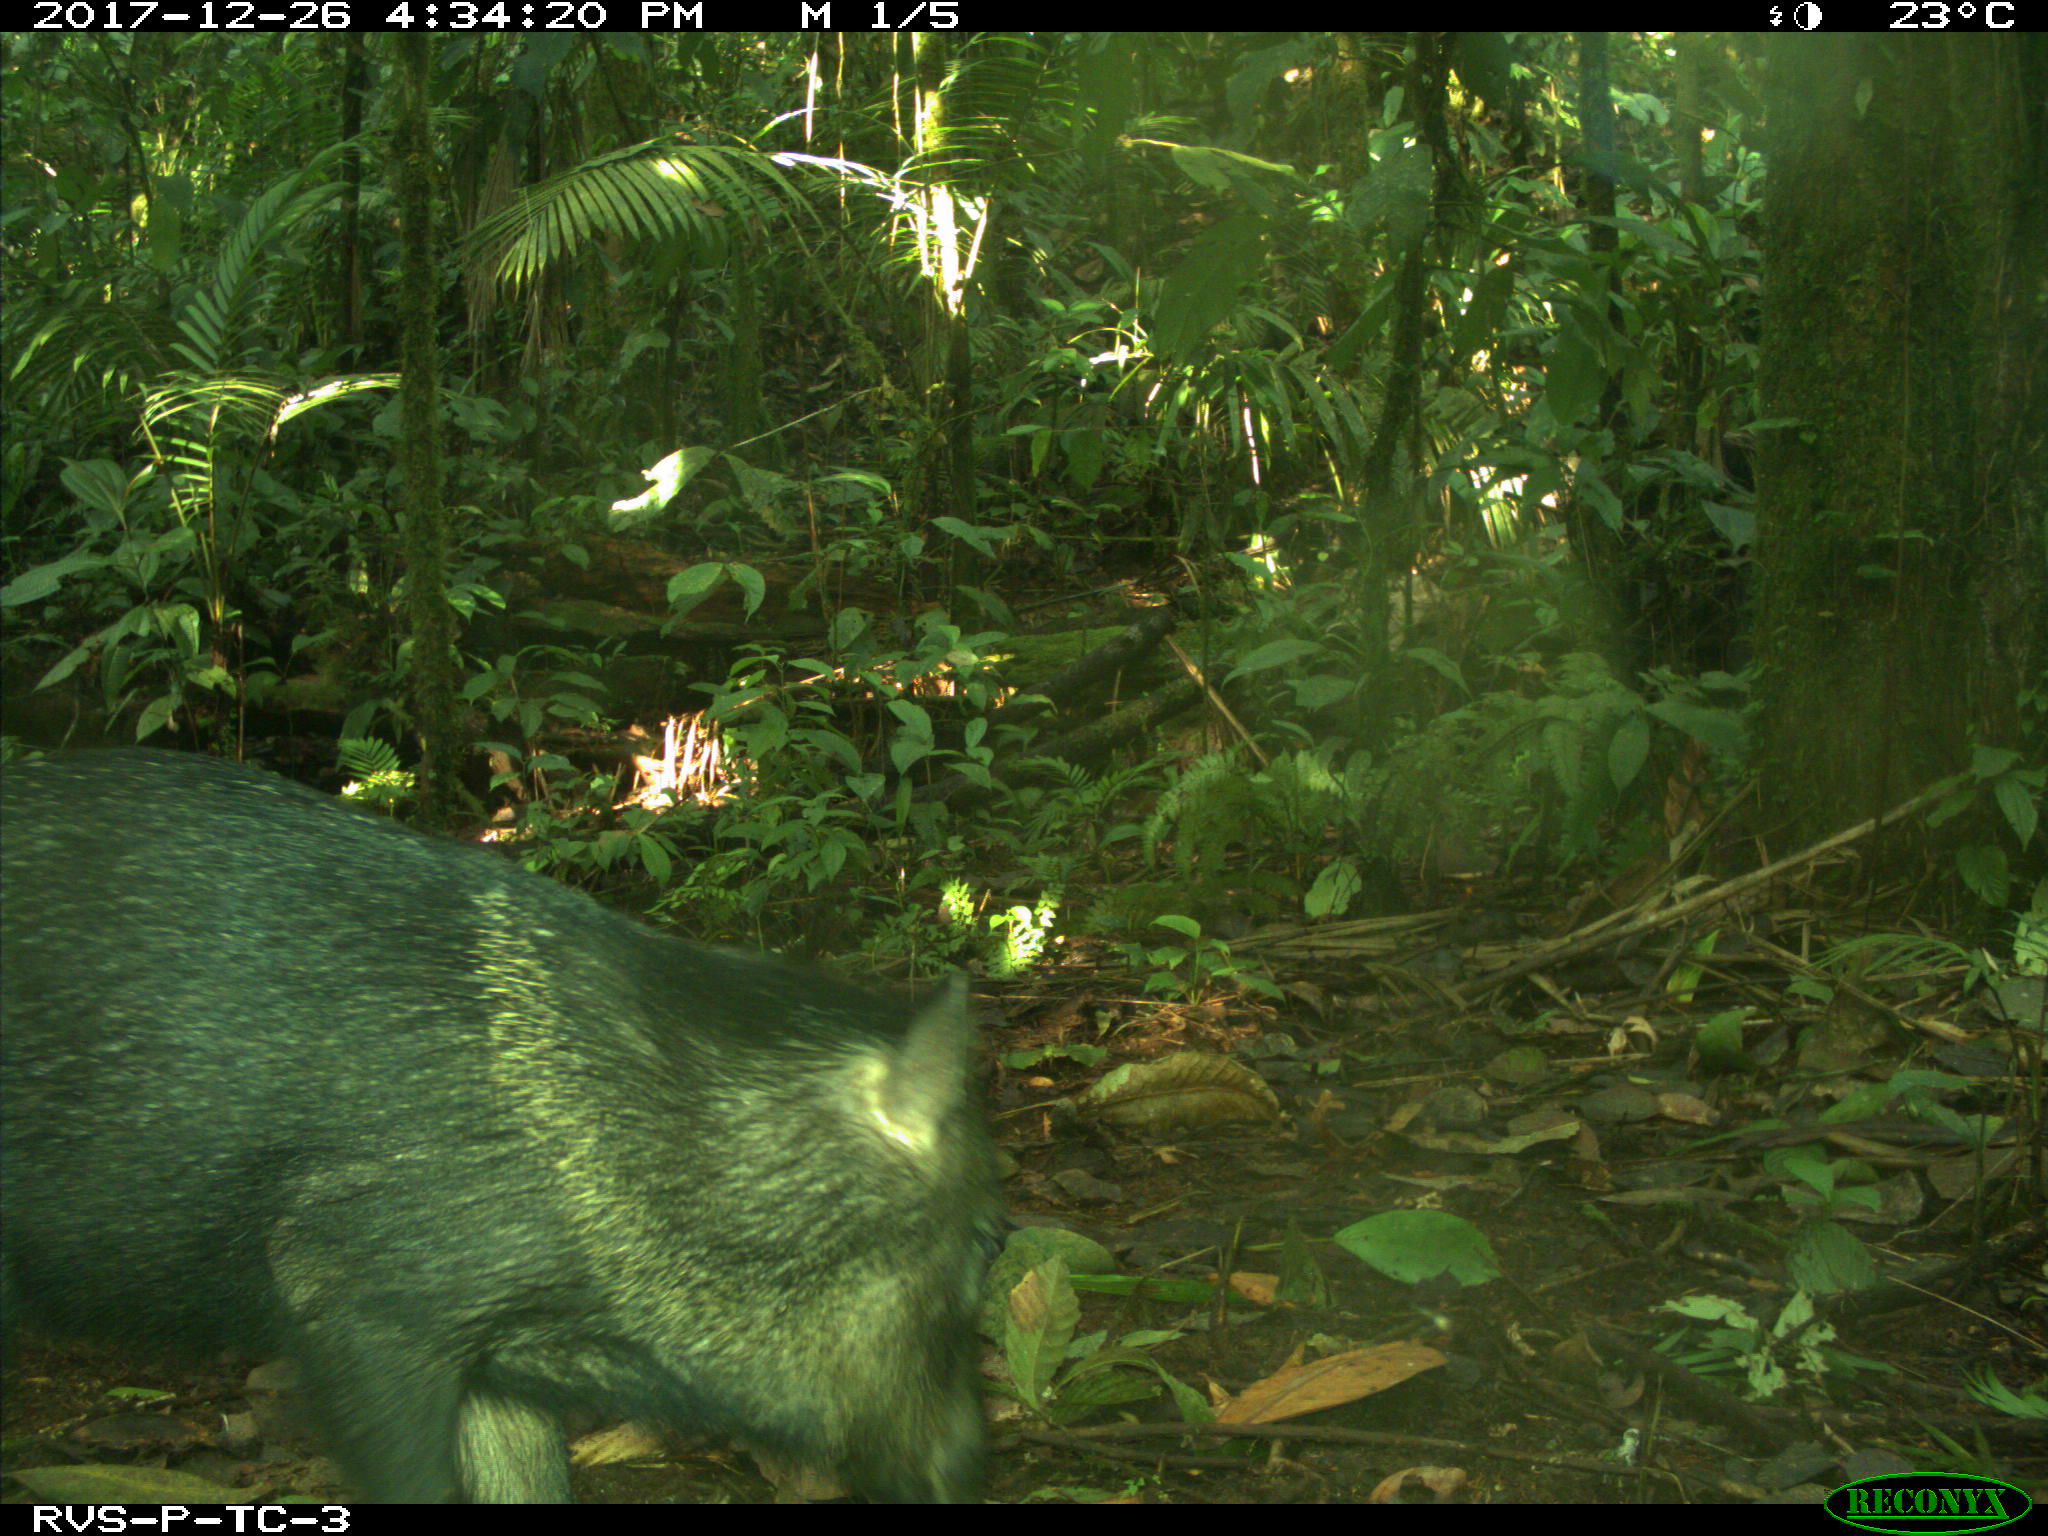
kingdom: Animalia
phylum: Chordata
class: Mammalia
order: Artiodactyla
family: Tayassuidae
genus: Tayassu
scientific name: Tayassu pecari
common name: White-lipped peccary
